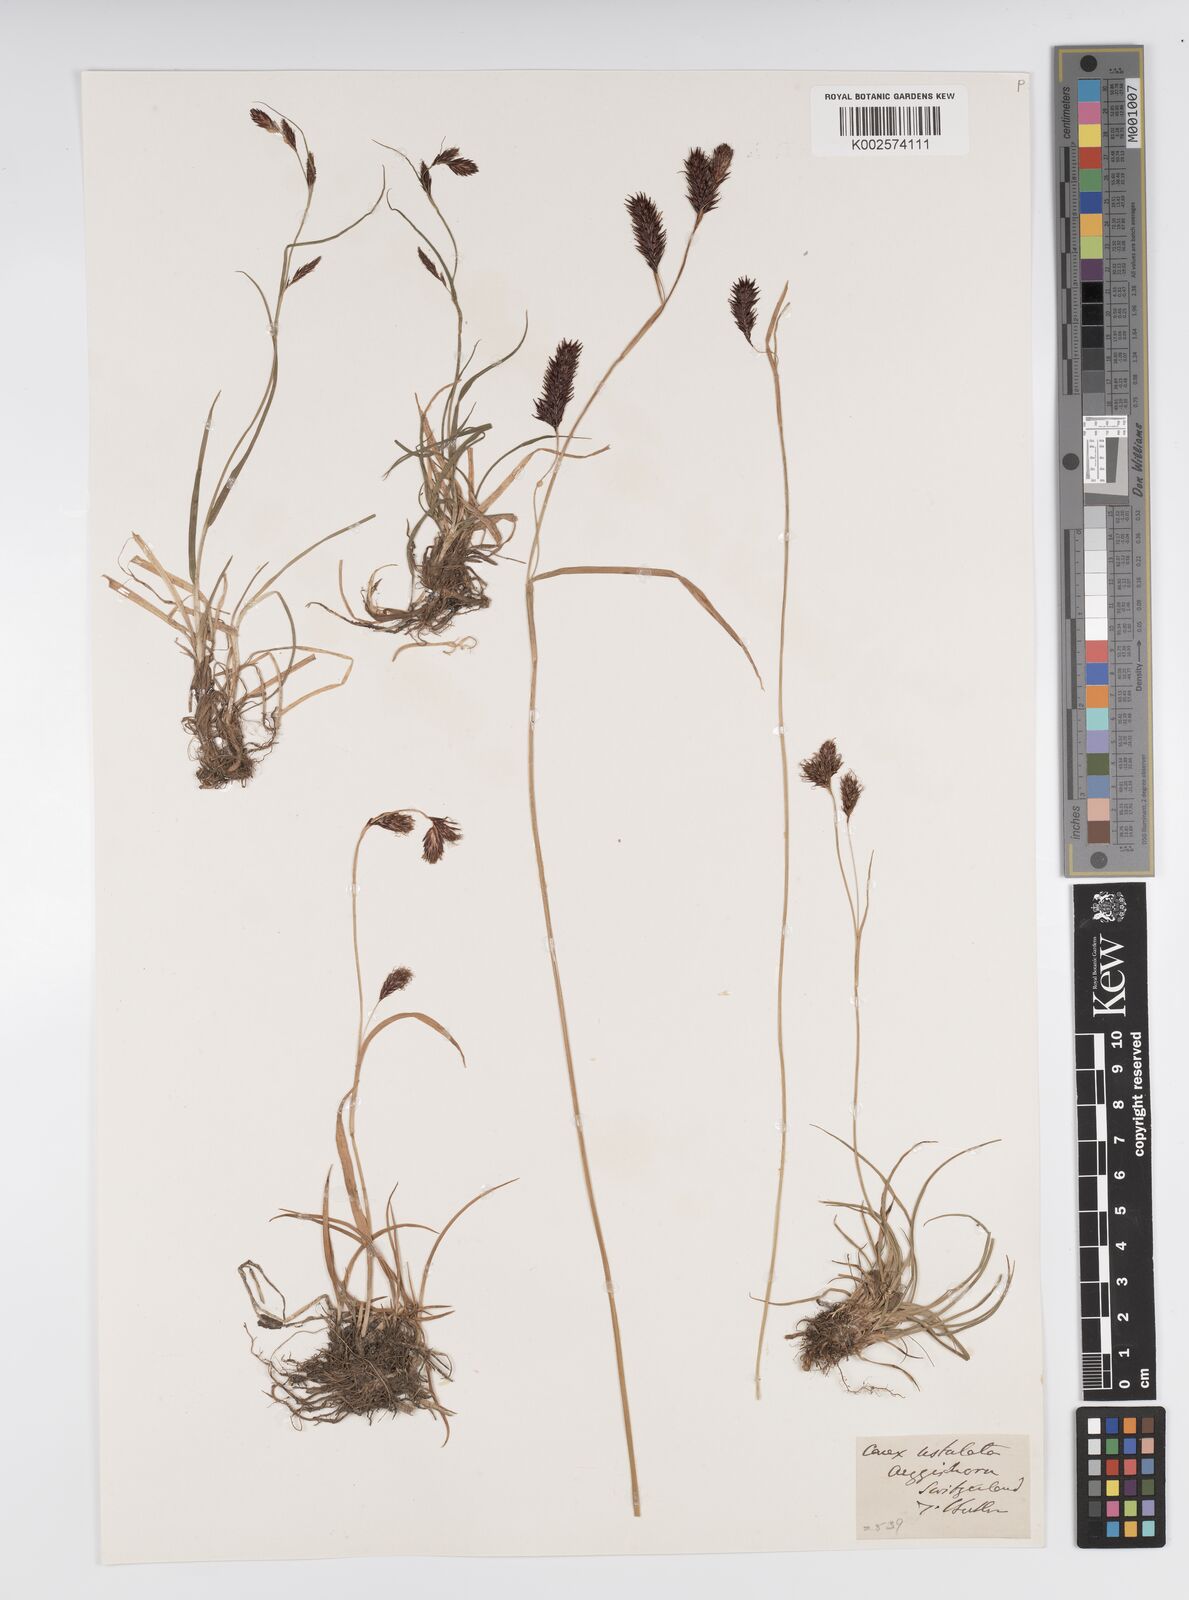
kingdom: Plantae
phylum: Tracheophyta
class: Liliopsida
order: Poales
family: Cyperaceae
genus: Carex
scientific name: Carex atrofusca
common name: Scorched alpine-sedge
